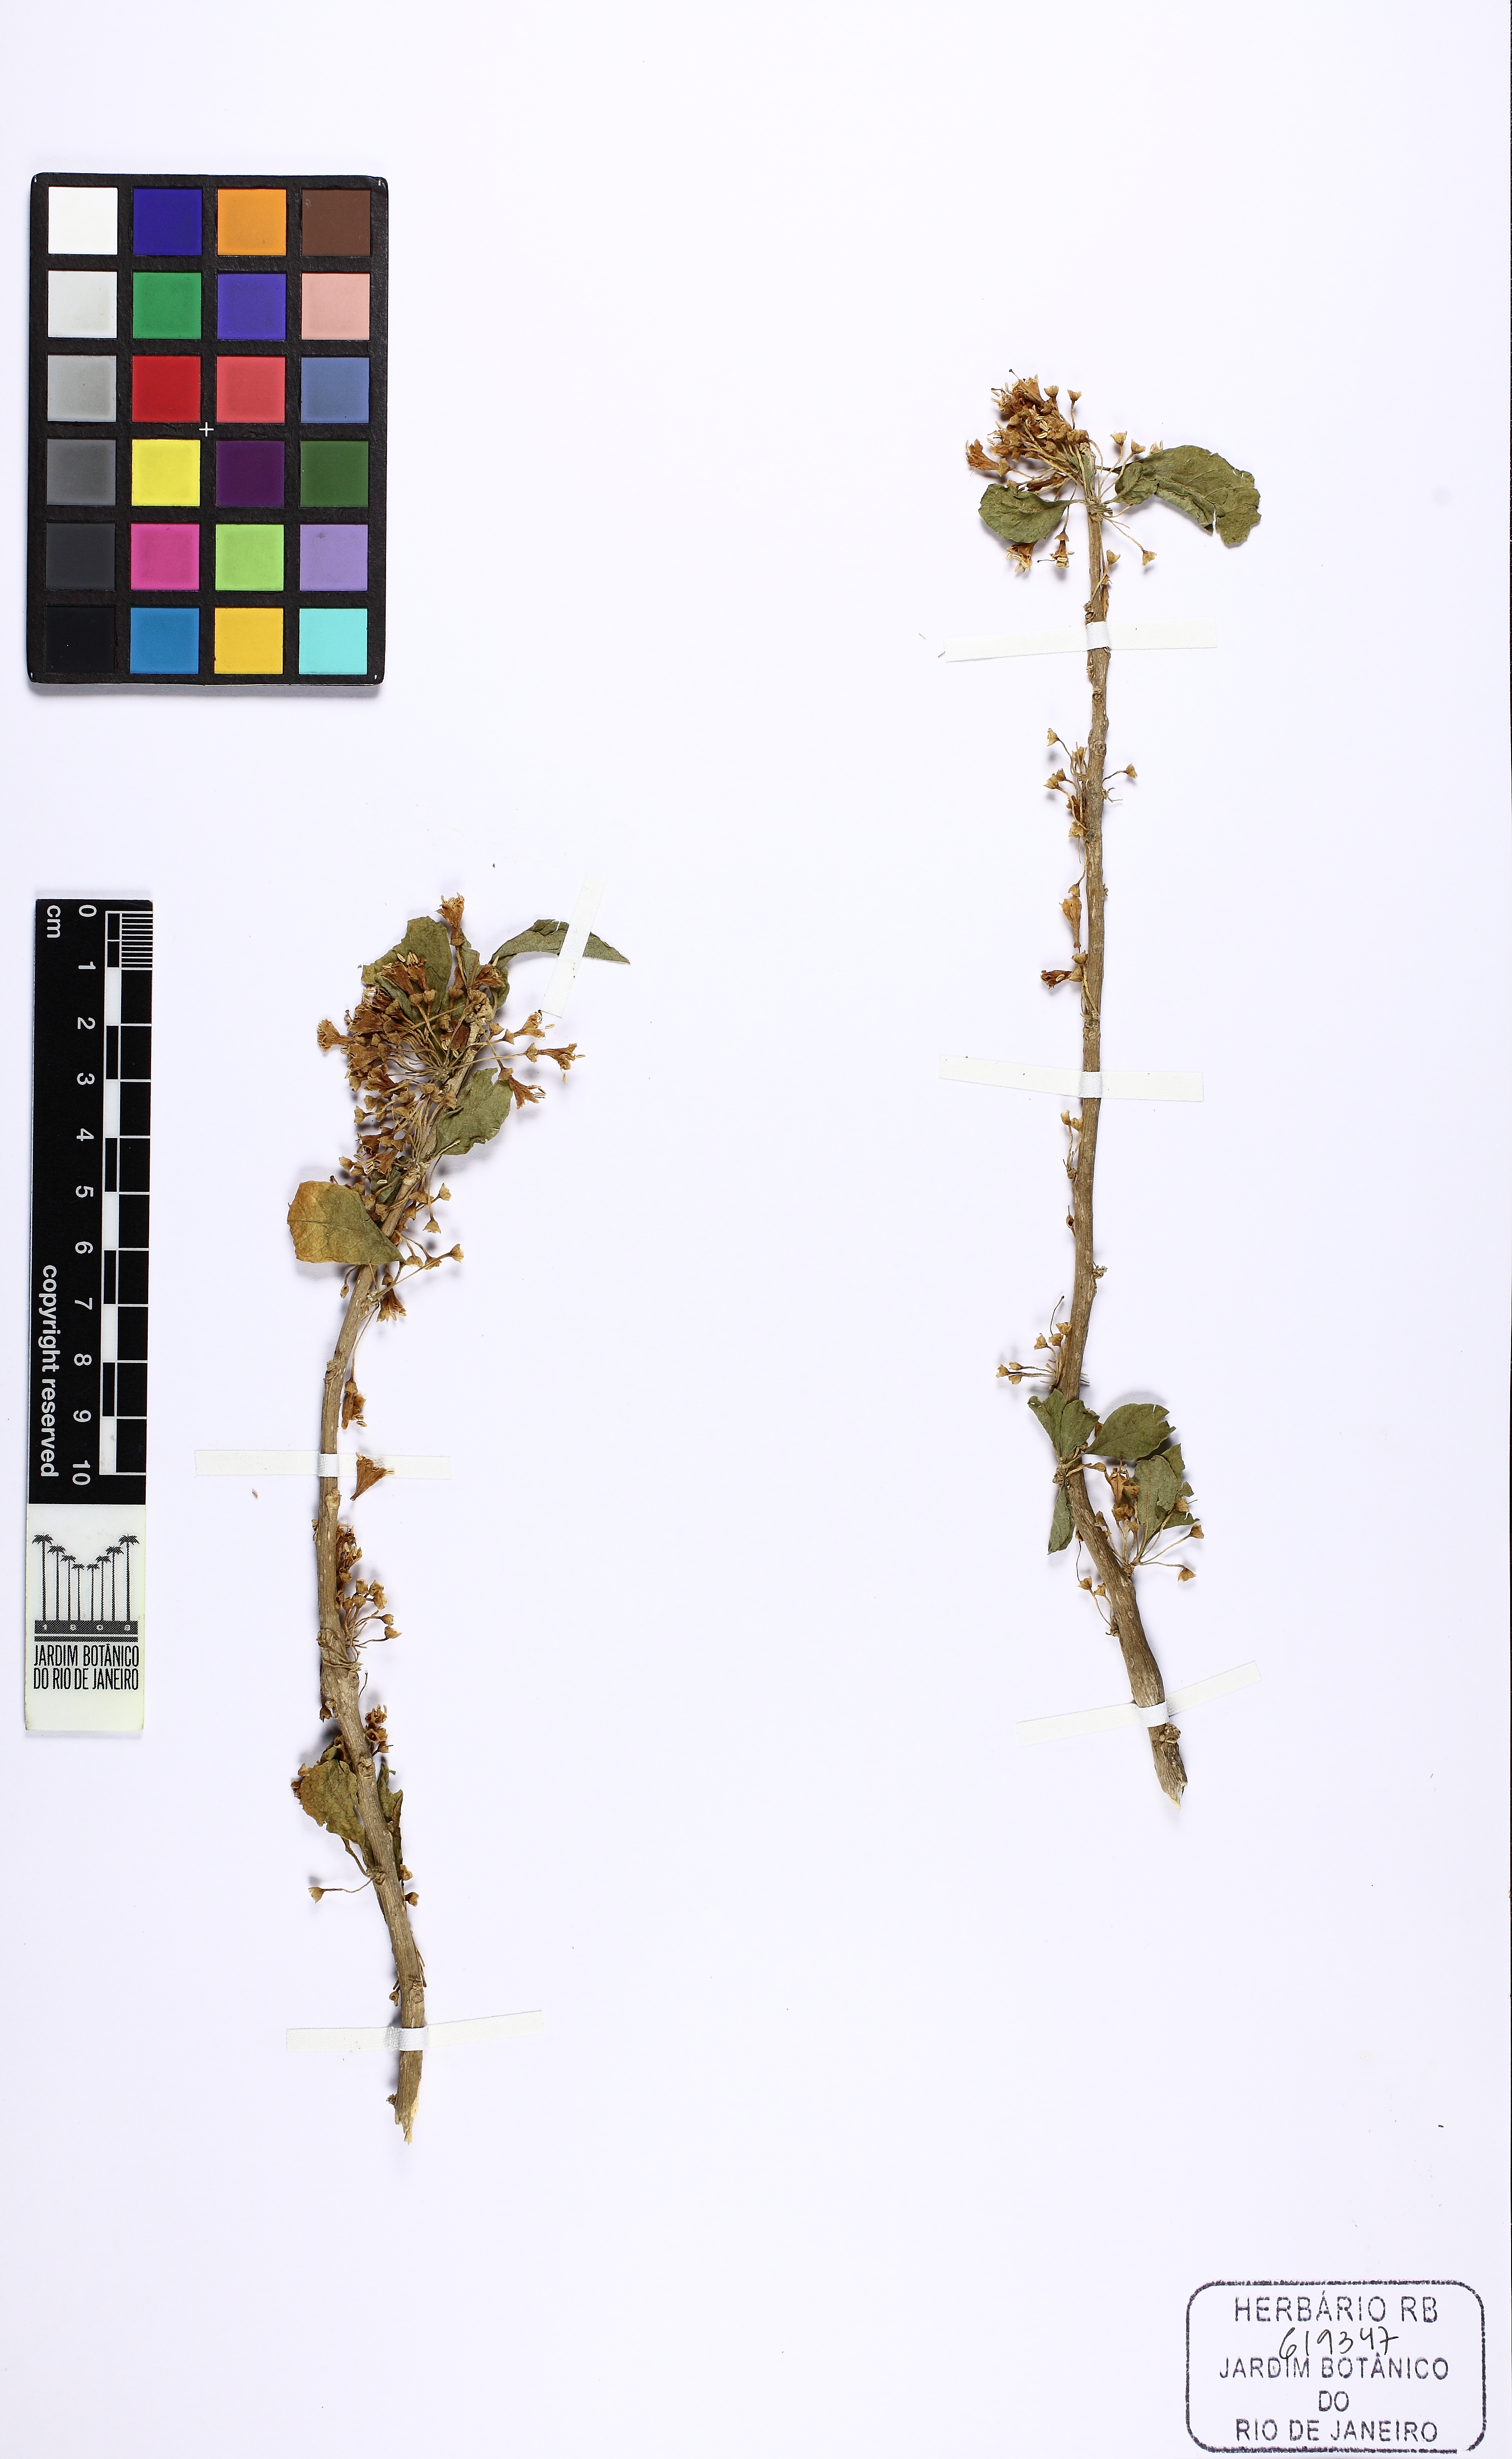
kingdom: Plantae
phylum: Tracheophyta
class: Magnoliopsida
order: Solanales
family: Solanaceae
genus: Iochroma
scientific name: Iochroma arborescens
